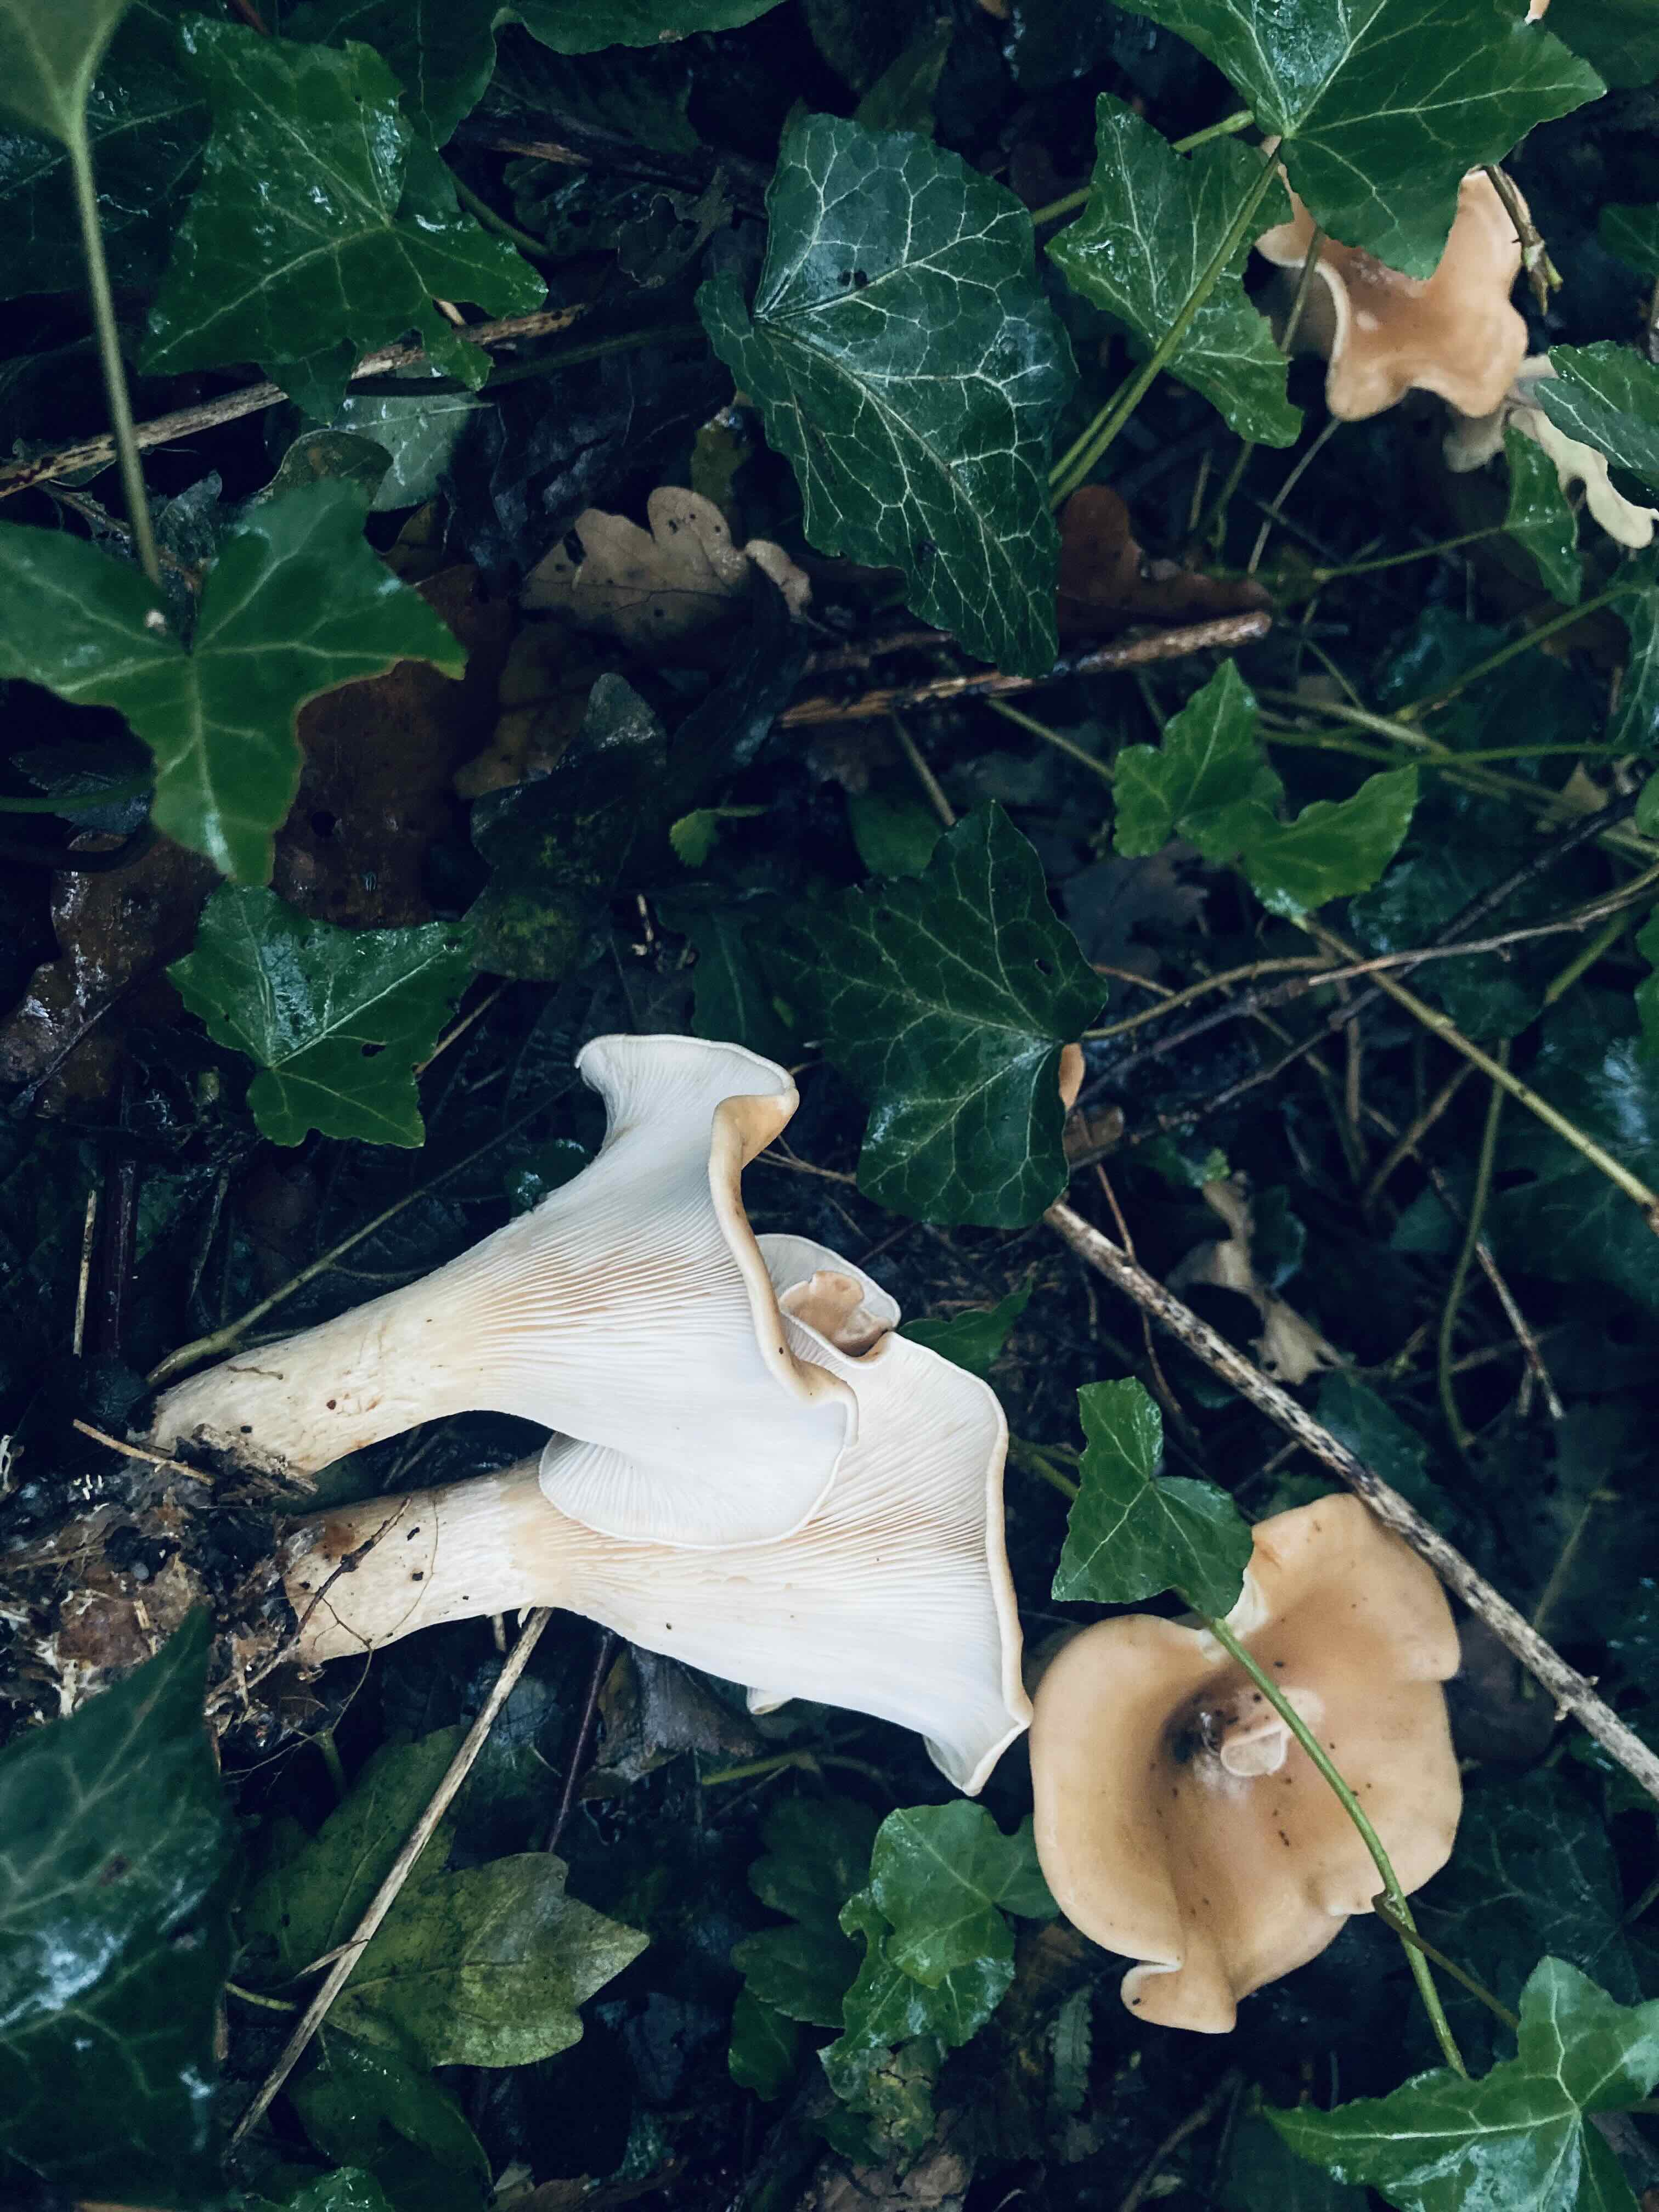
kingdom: Fungi
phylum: Basidiomycota
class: Agaricomycetes
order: Agaricales
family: Tricholomataceae
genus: Paralepista
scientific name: Paralepista flaccida
